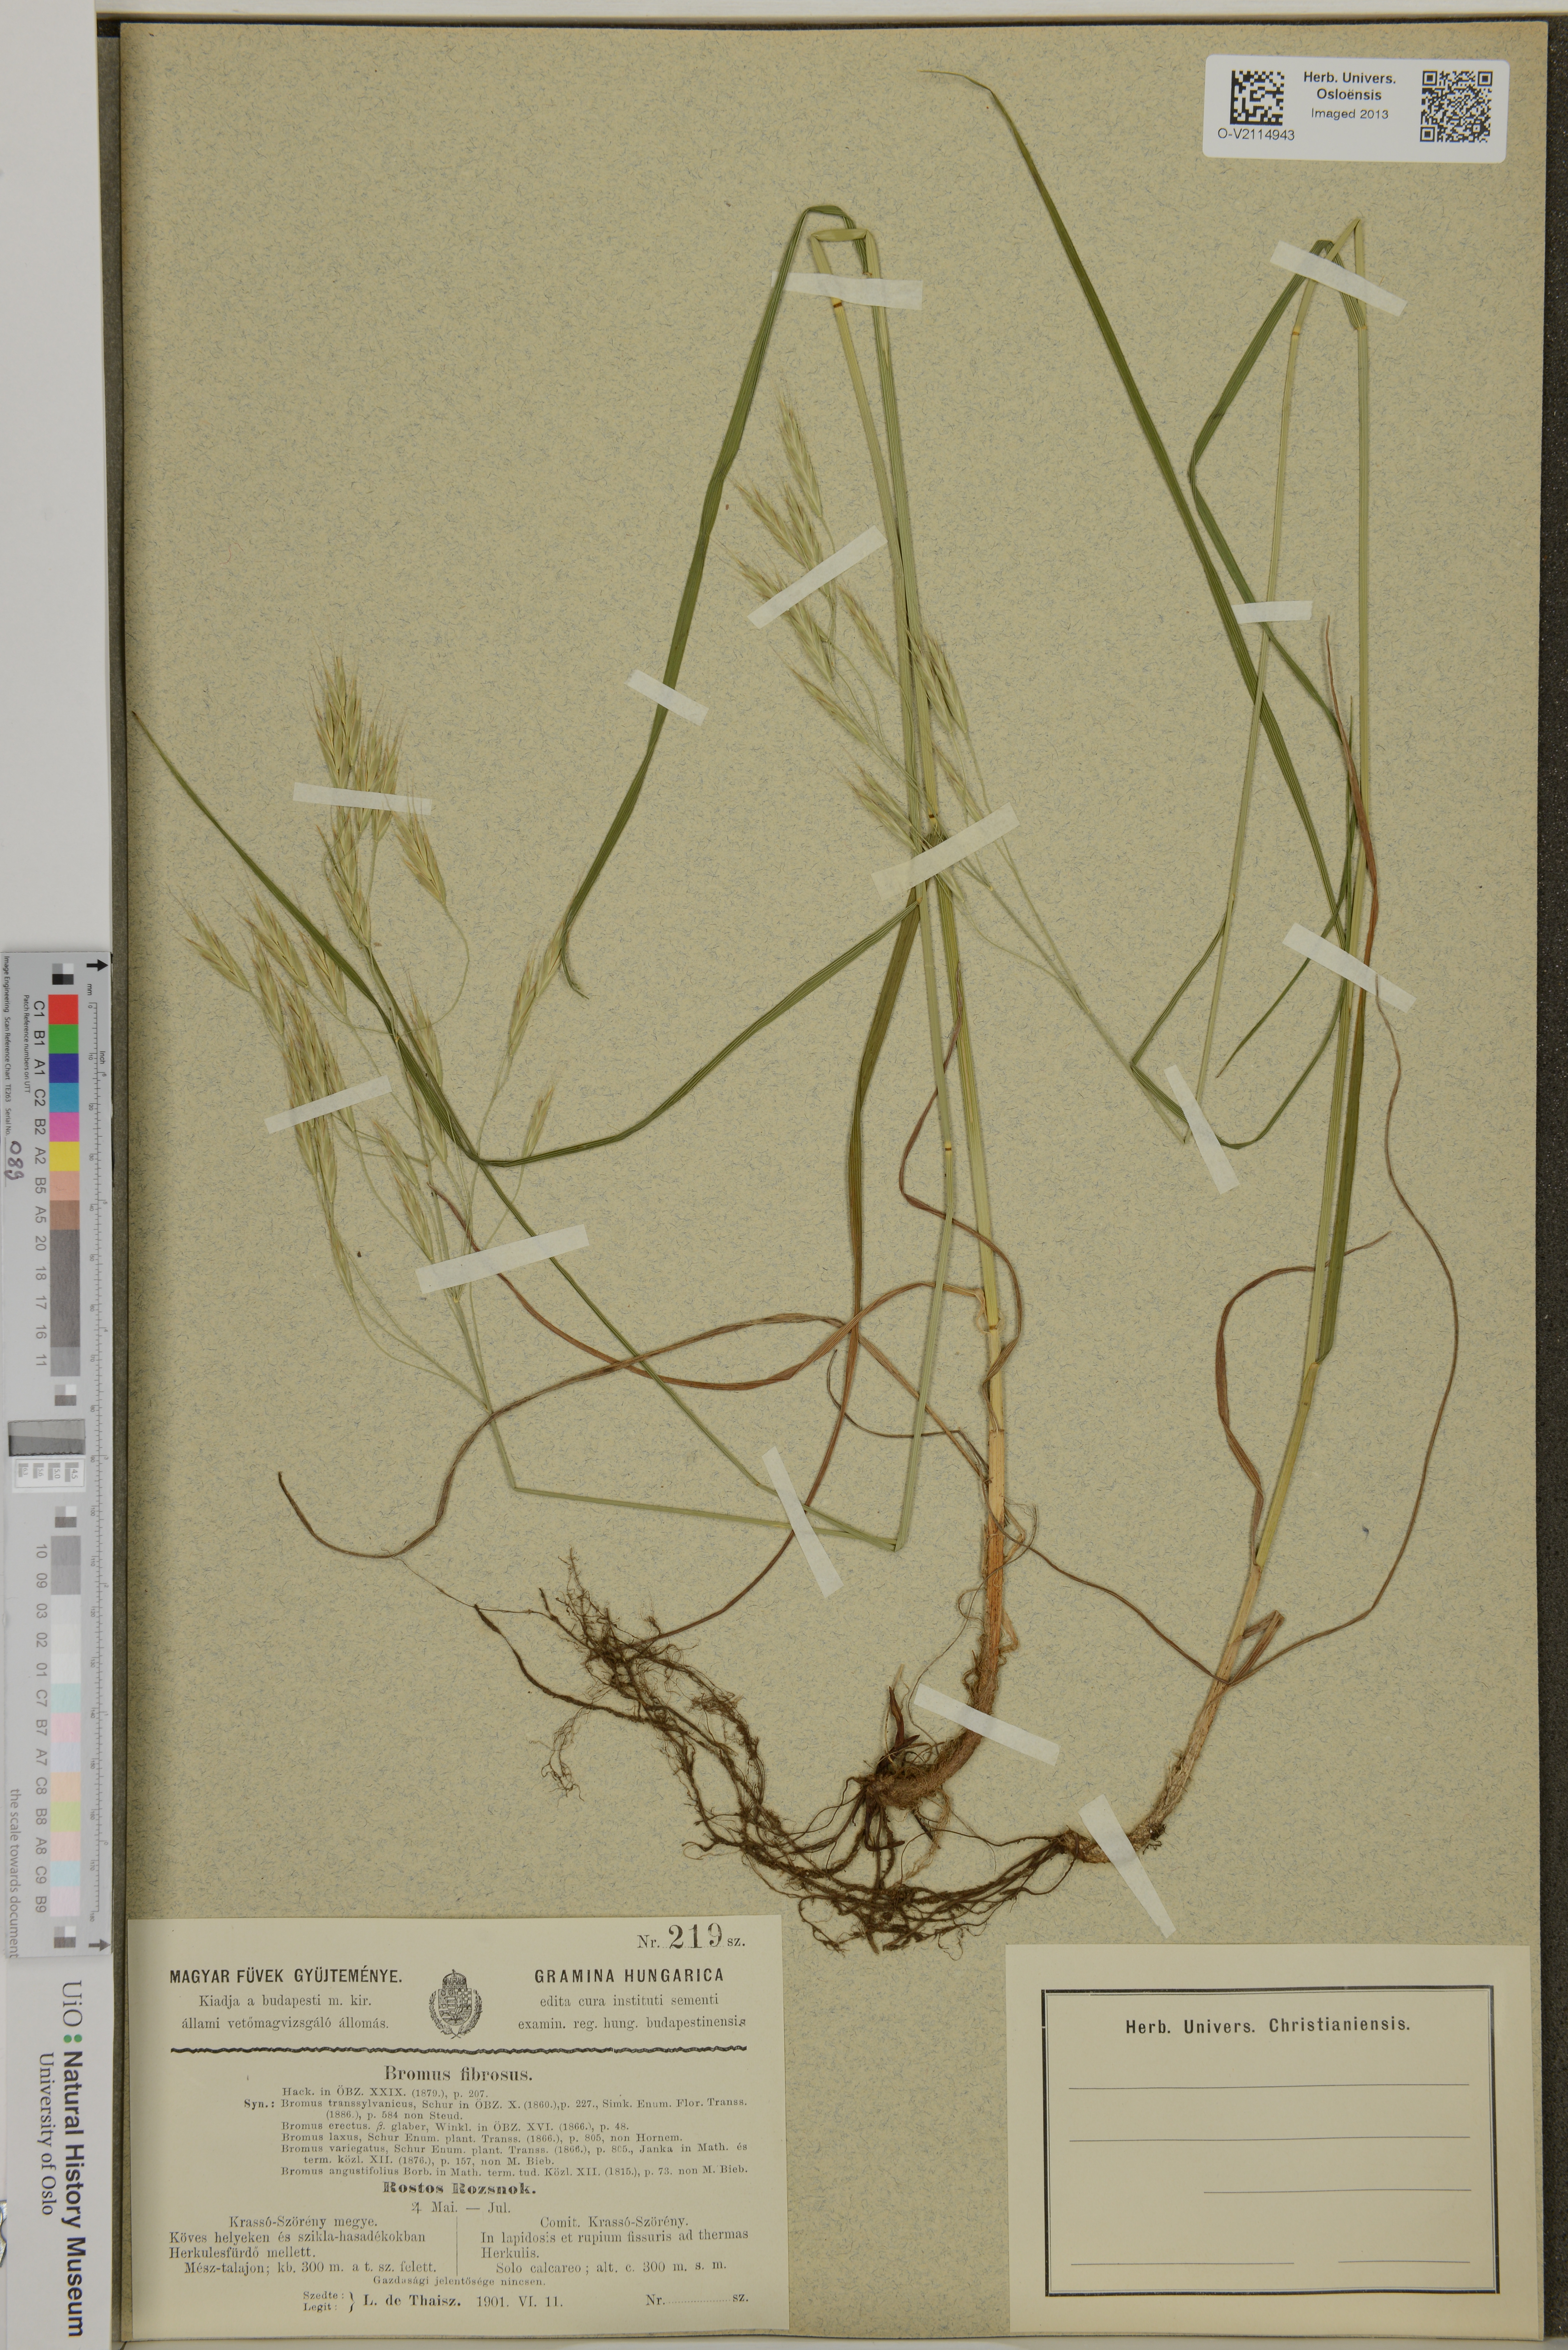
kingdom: Plantae
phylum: Tracheophyta
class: Liliopsida
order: Poales
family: Poaceae
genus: Bromus
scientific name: Bromus riparius
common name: Meadow brome
